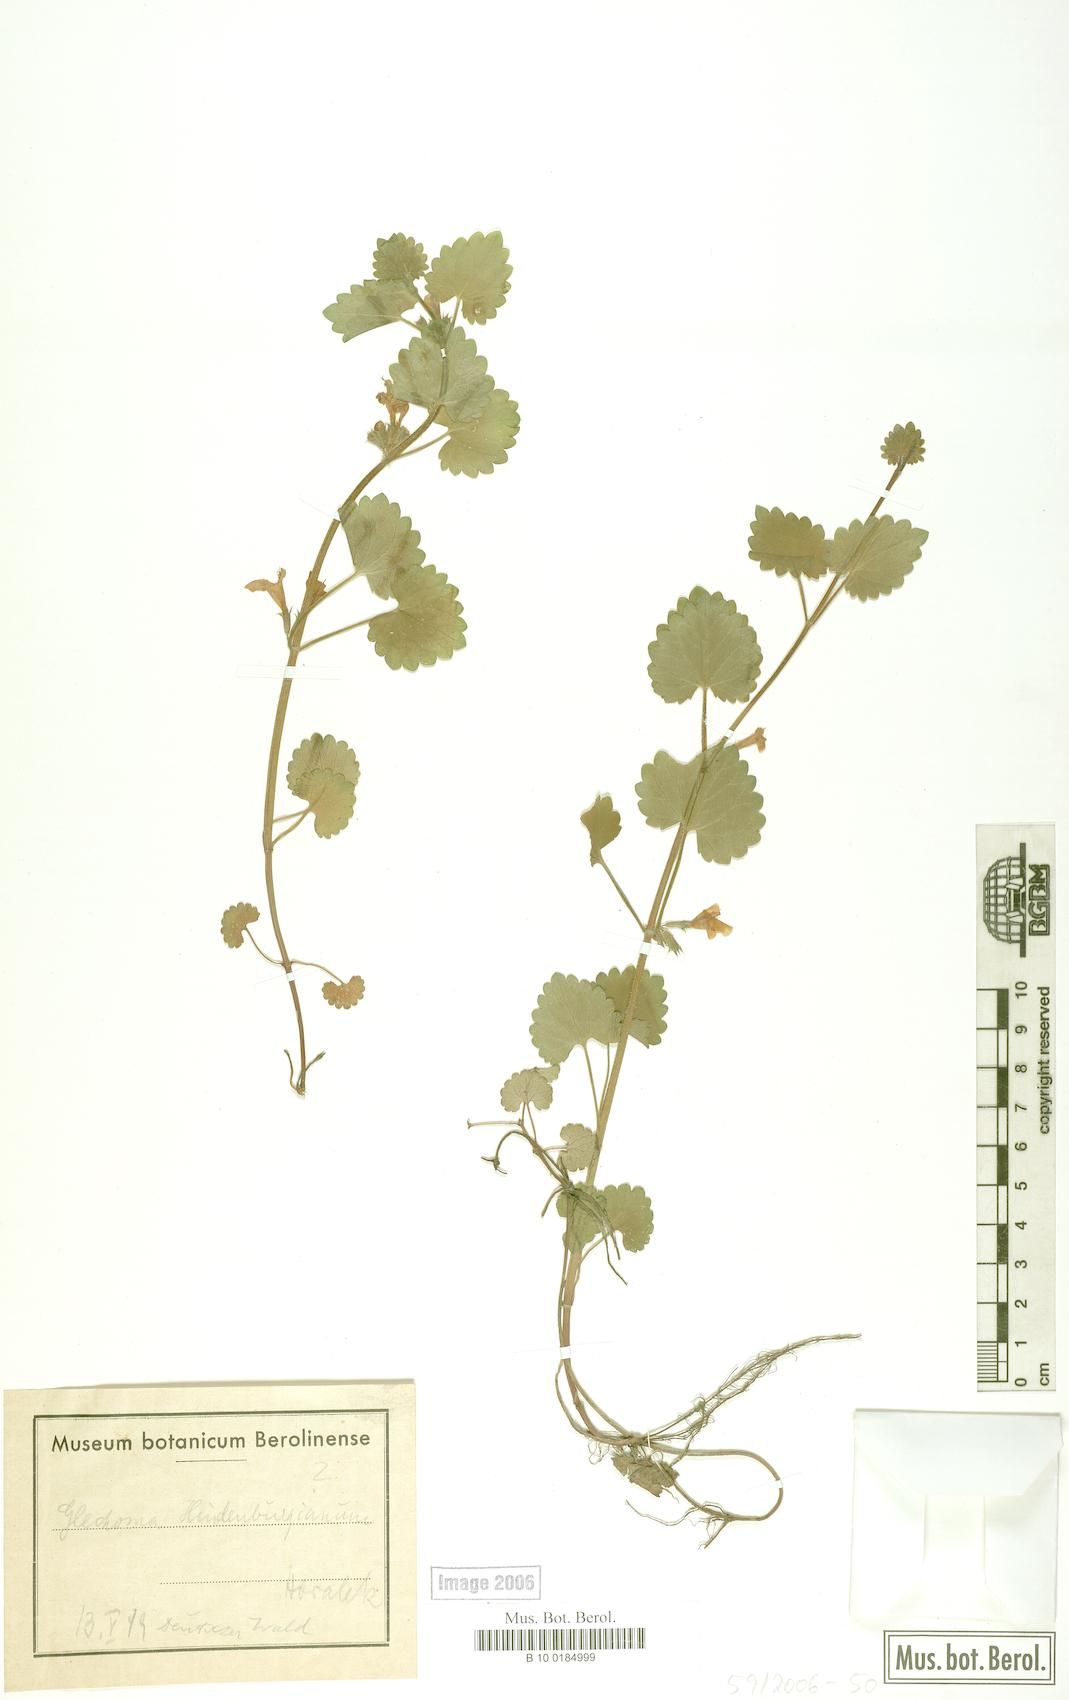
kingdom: Plantae
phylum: Tracheophyta
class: Magnoliopsida
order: Lamiales
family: Lamiaceae
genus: Glechoma
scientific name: Glechoma pannonica
